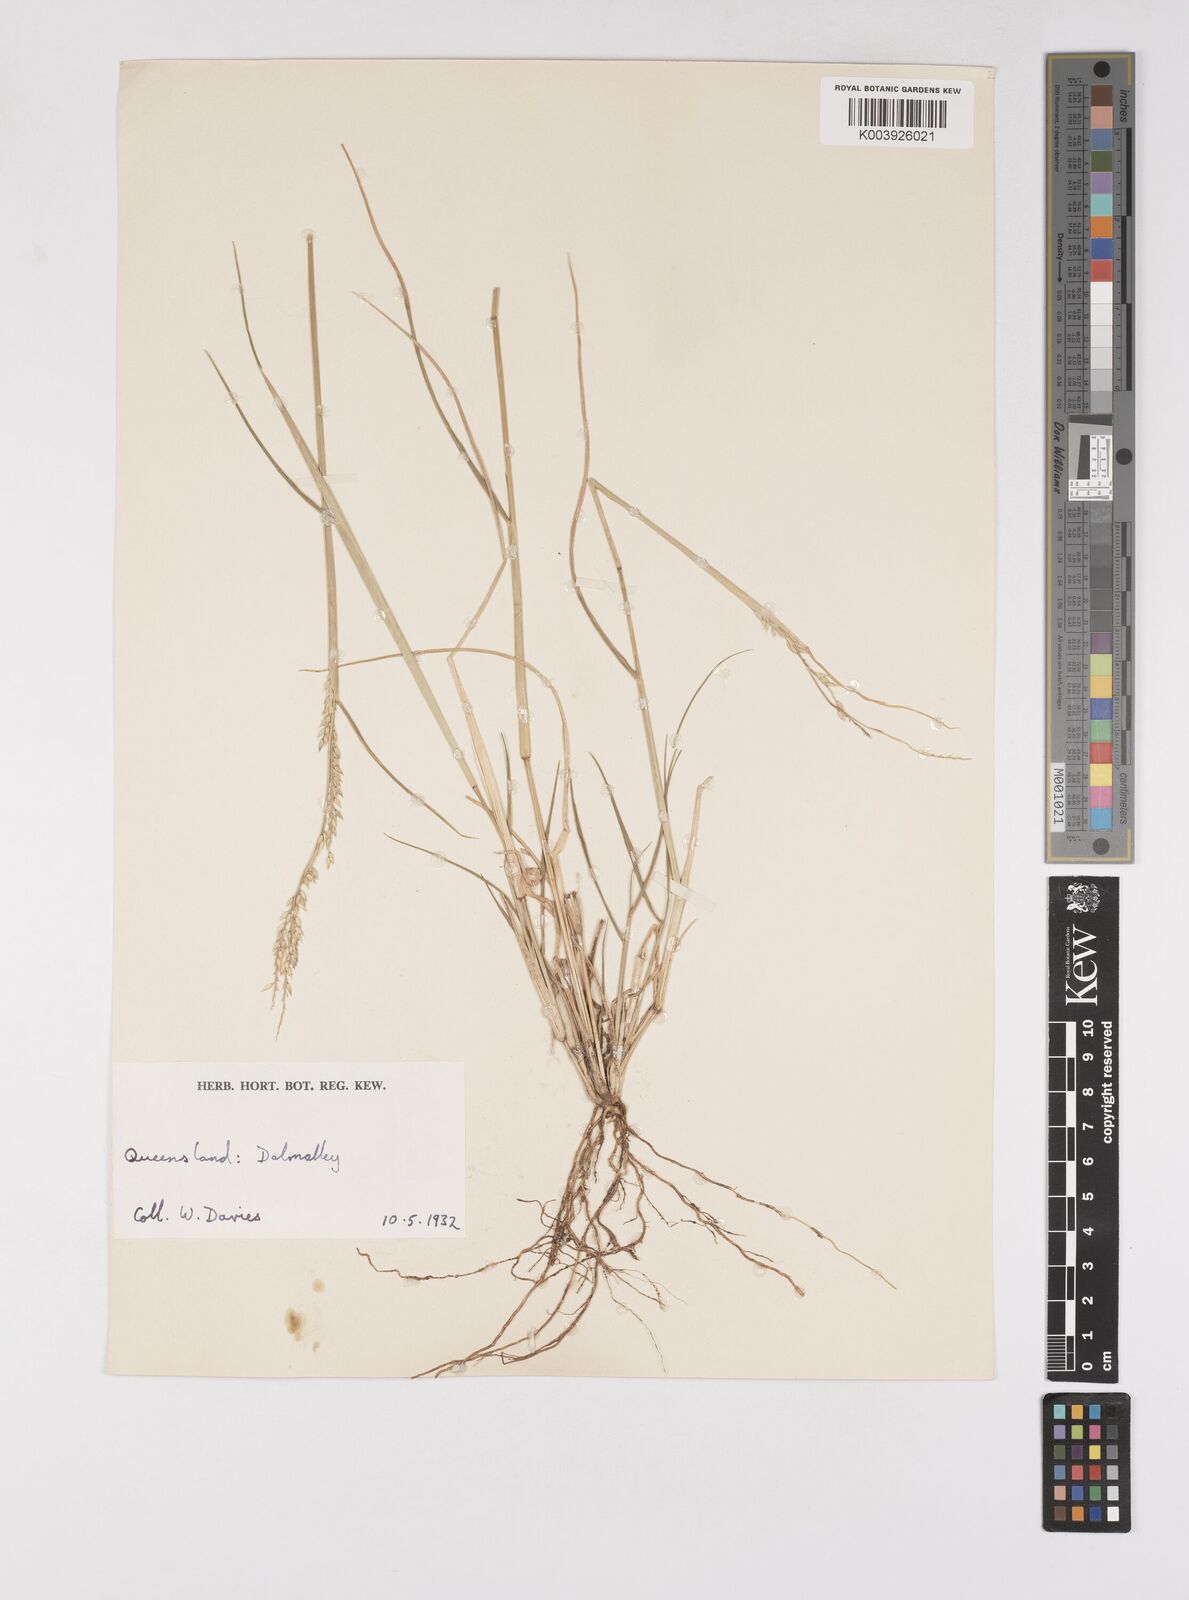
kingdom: Plantae
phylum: Tracheophyta
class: Liliopsida
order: Poales
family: Poaceae
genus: Eriochloa
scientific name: Eriochloa
